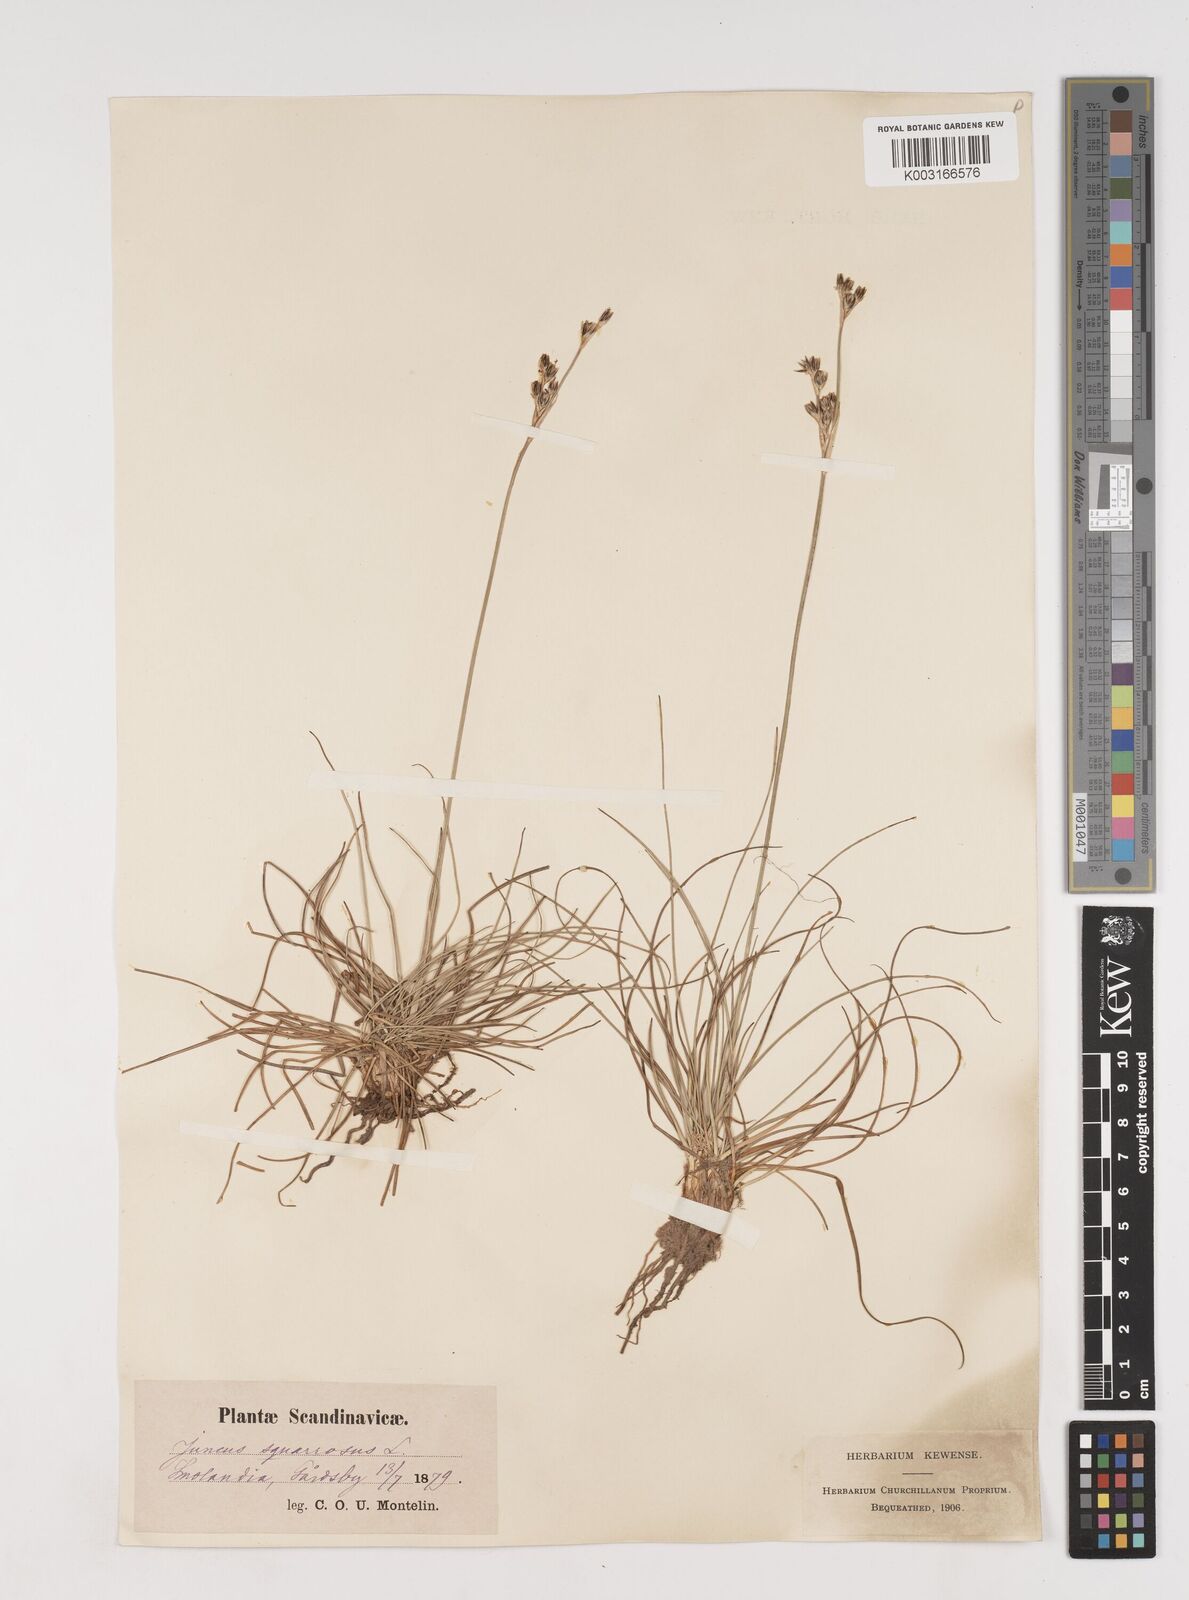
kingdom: Plantae
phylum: Tracheophyta
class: Liliopsida
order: Poales
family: Juncaceae
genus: Juncus
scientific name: Juncus squarrosus
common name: Heath rush
